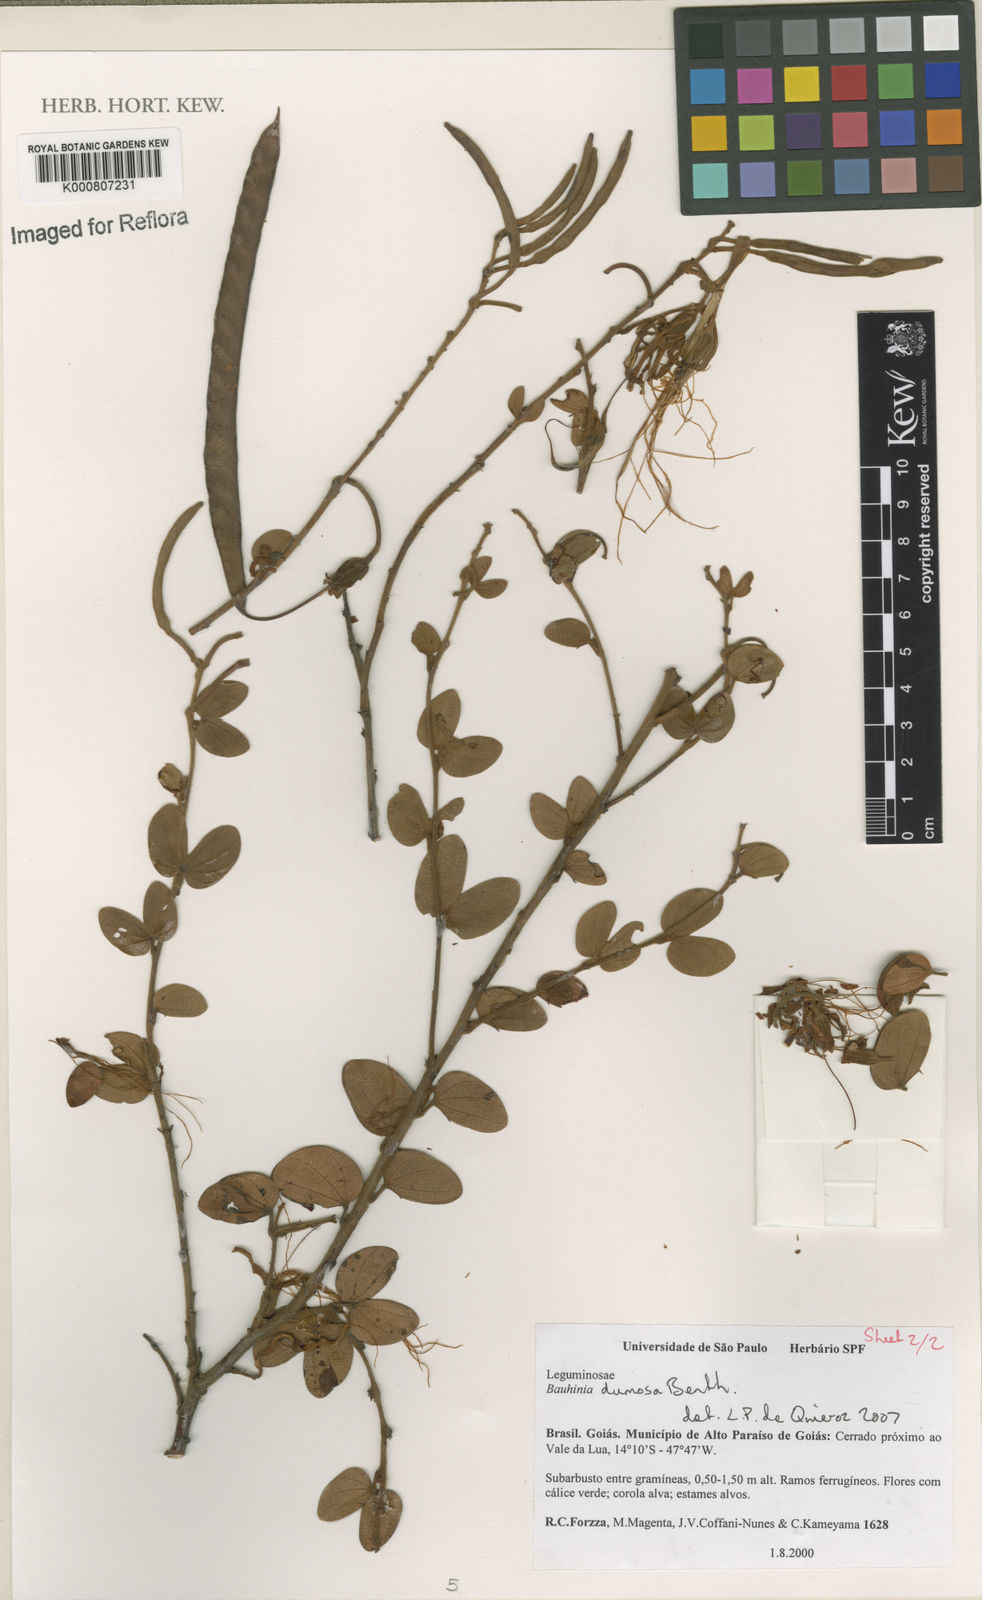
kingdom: Plantae
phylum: Tracheophyta
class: Magnoliopsida
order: Fabales
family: Fabaceae
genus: Bauhinia
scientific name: Bauhinia dumosa
